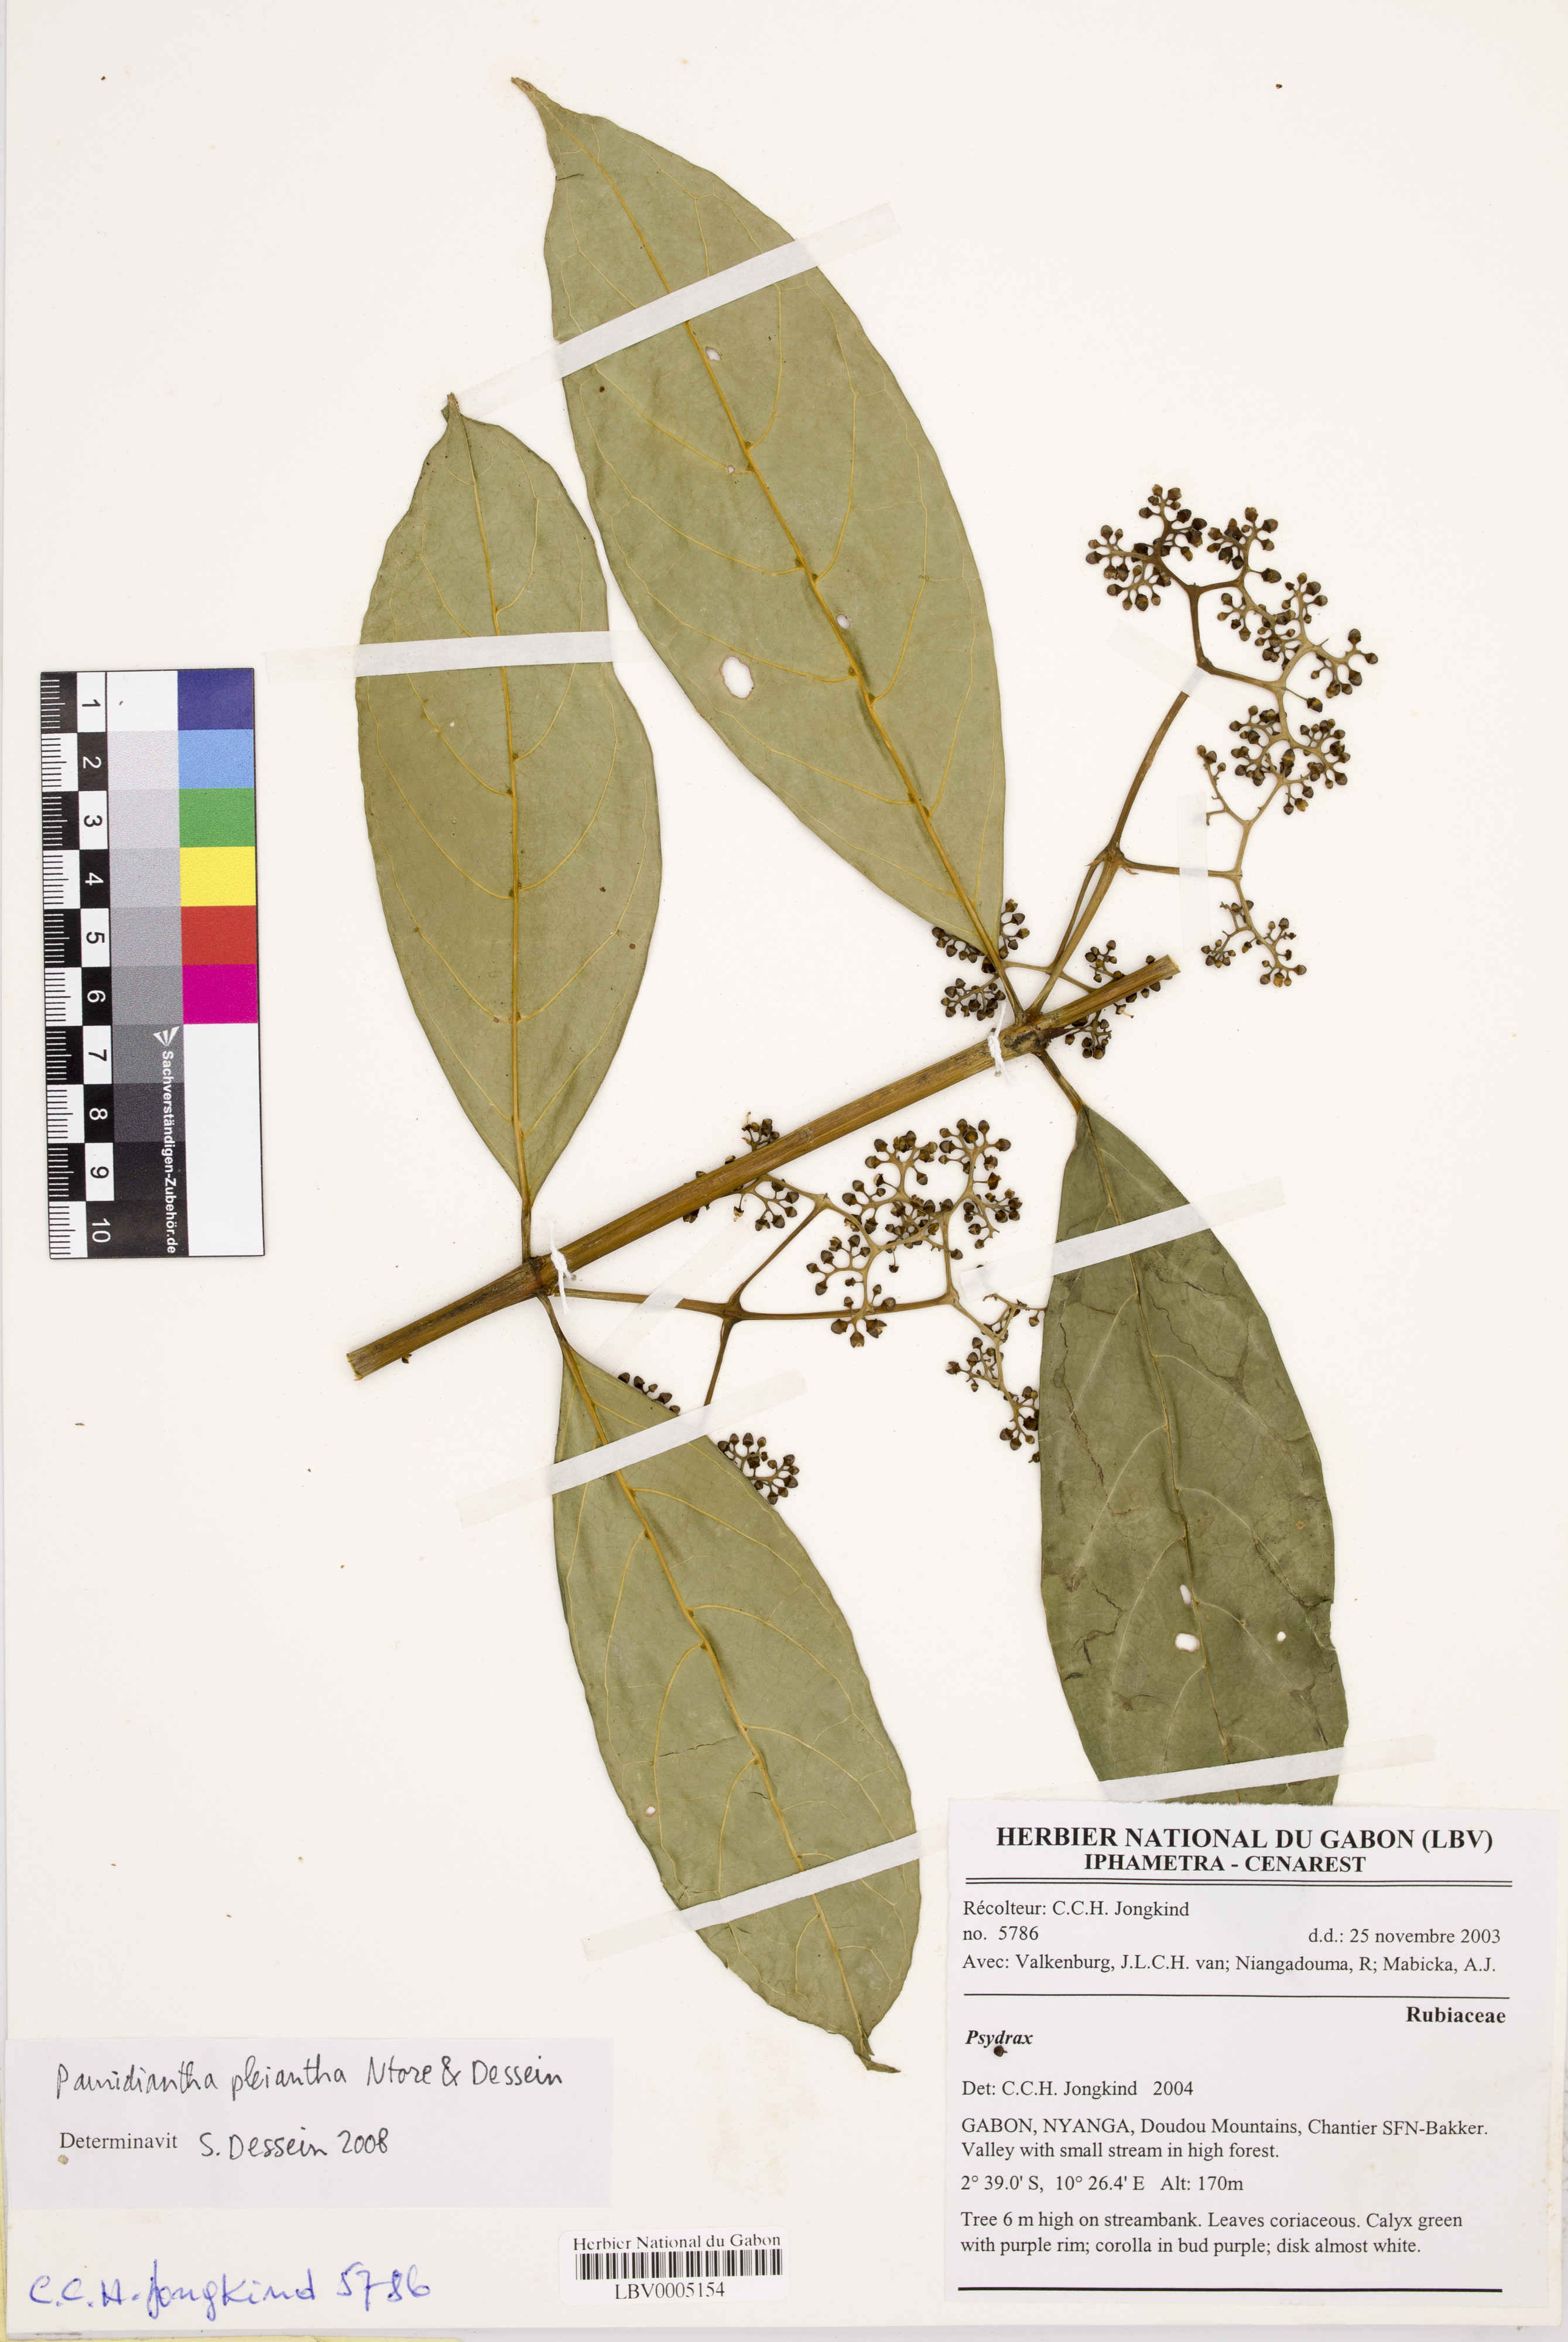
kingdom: Plantae
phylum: Tracheophyta
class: Magnoliopsida
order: Gentianales
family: Rubiaceae
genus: Pauridiantha
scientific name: Pauridiantha pleiantha
